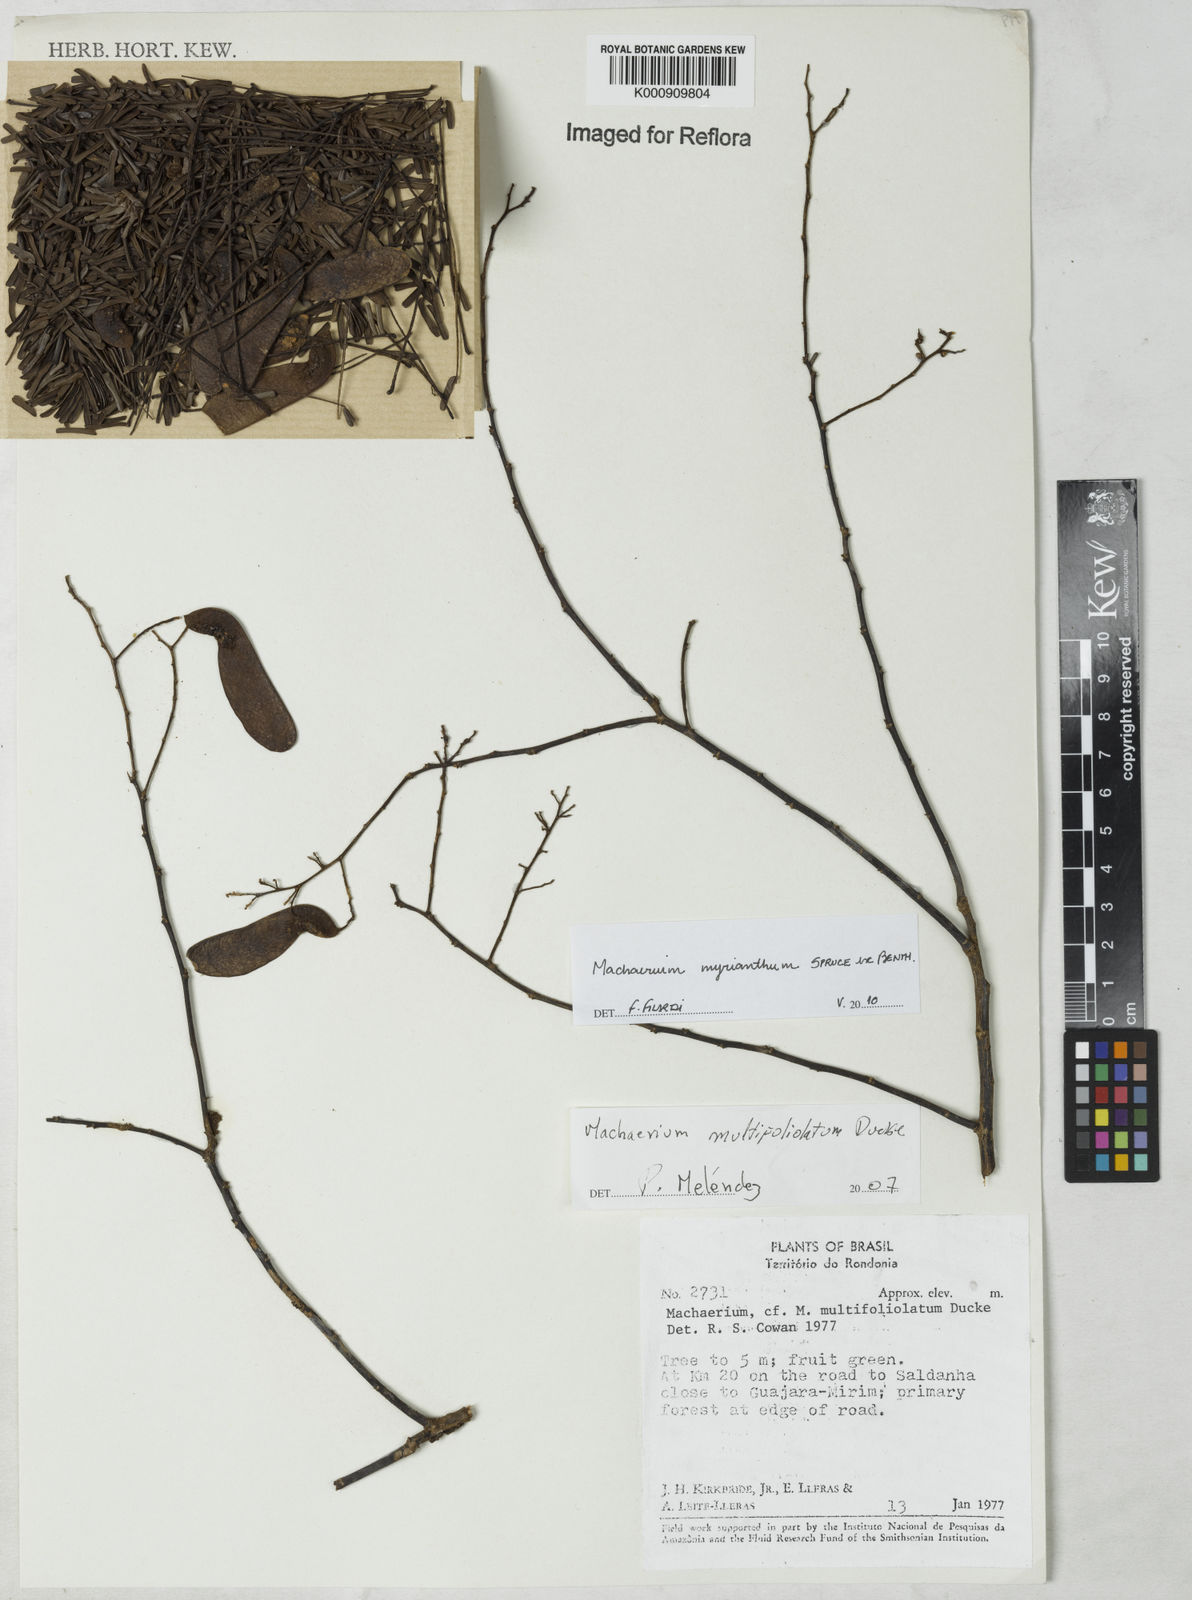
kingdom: Plantae
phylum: Tracheophyta
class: Magnoliopsida
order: Fabales
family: Fabaceae
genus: Machaerium
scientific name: Machaerium multifoliolatum
